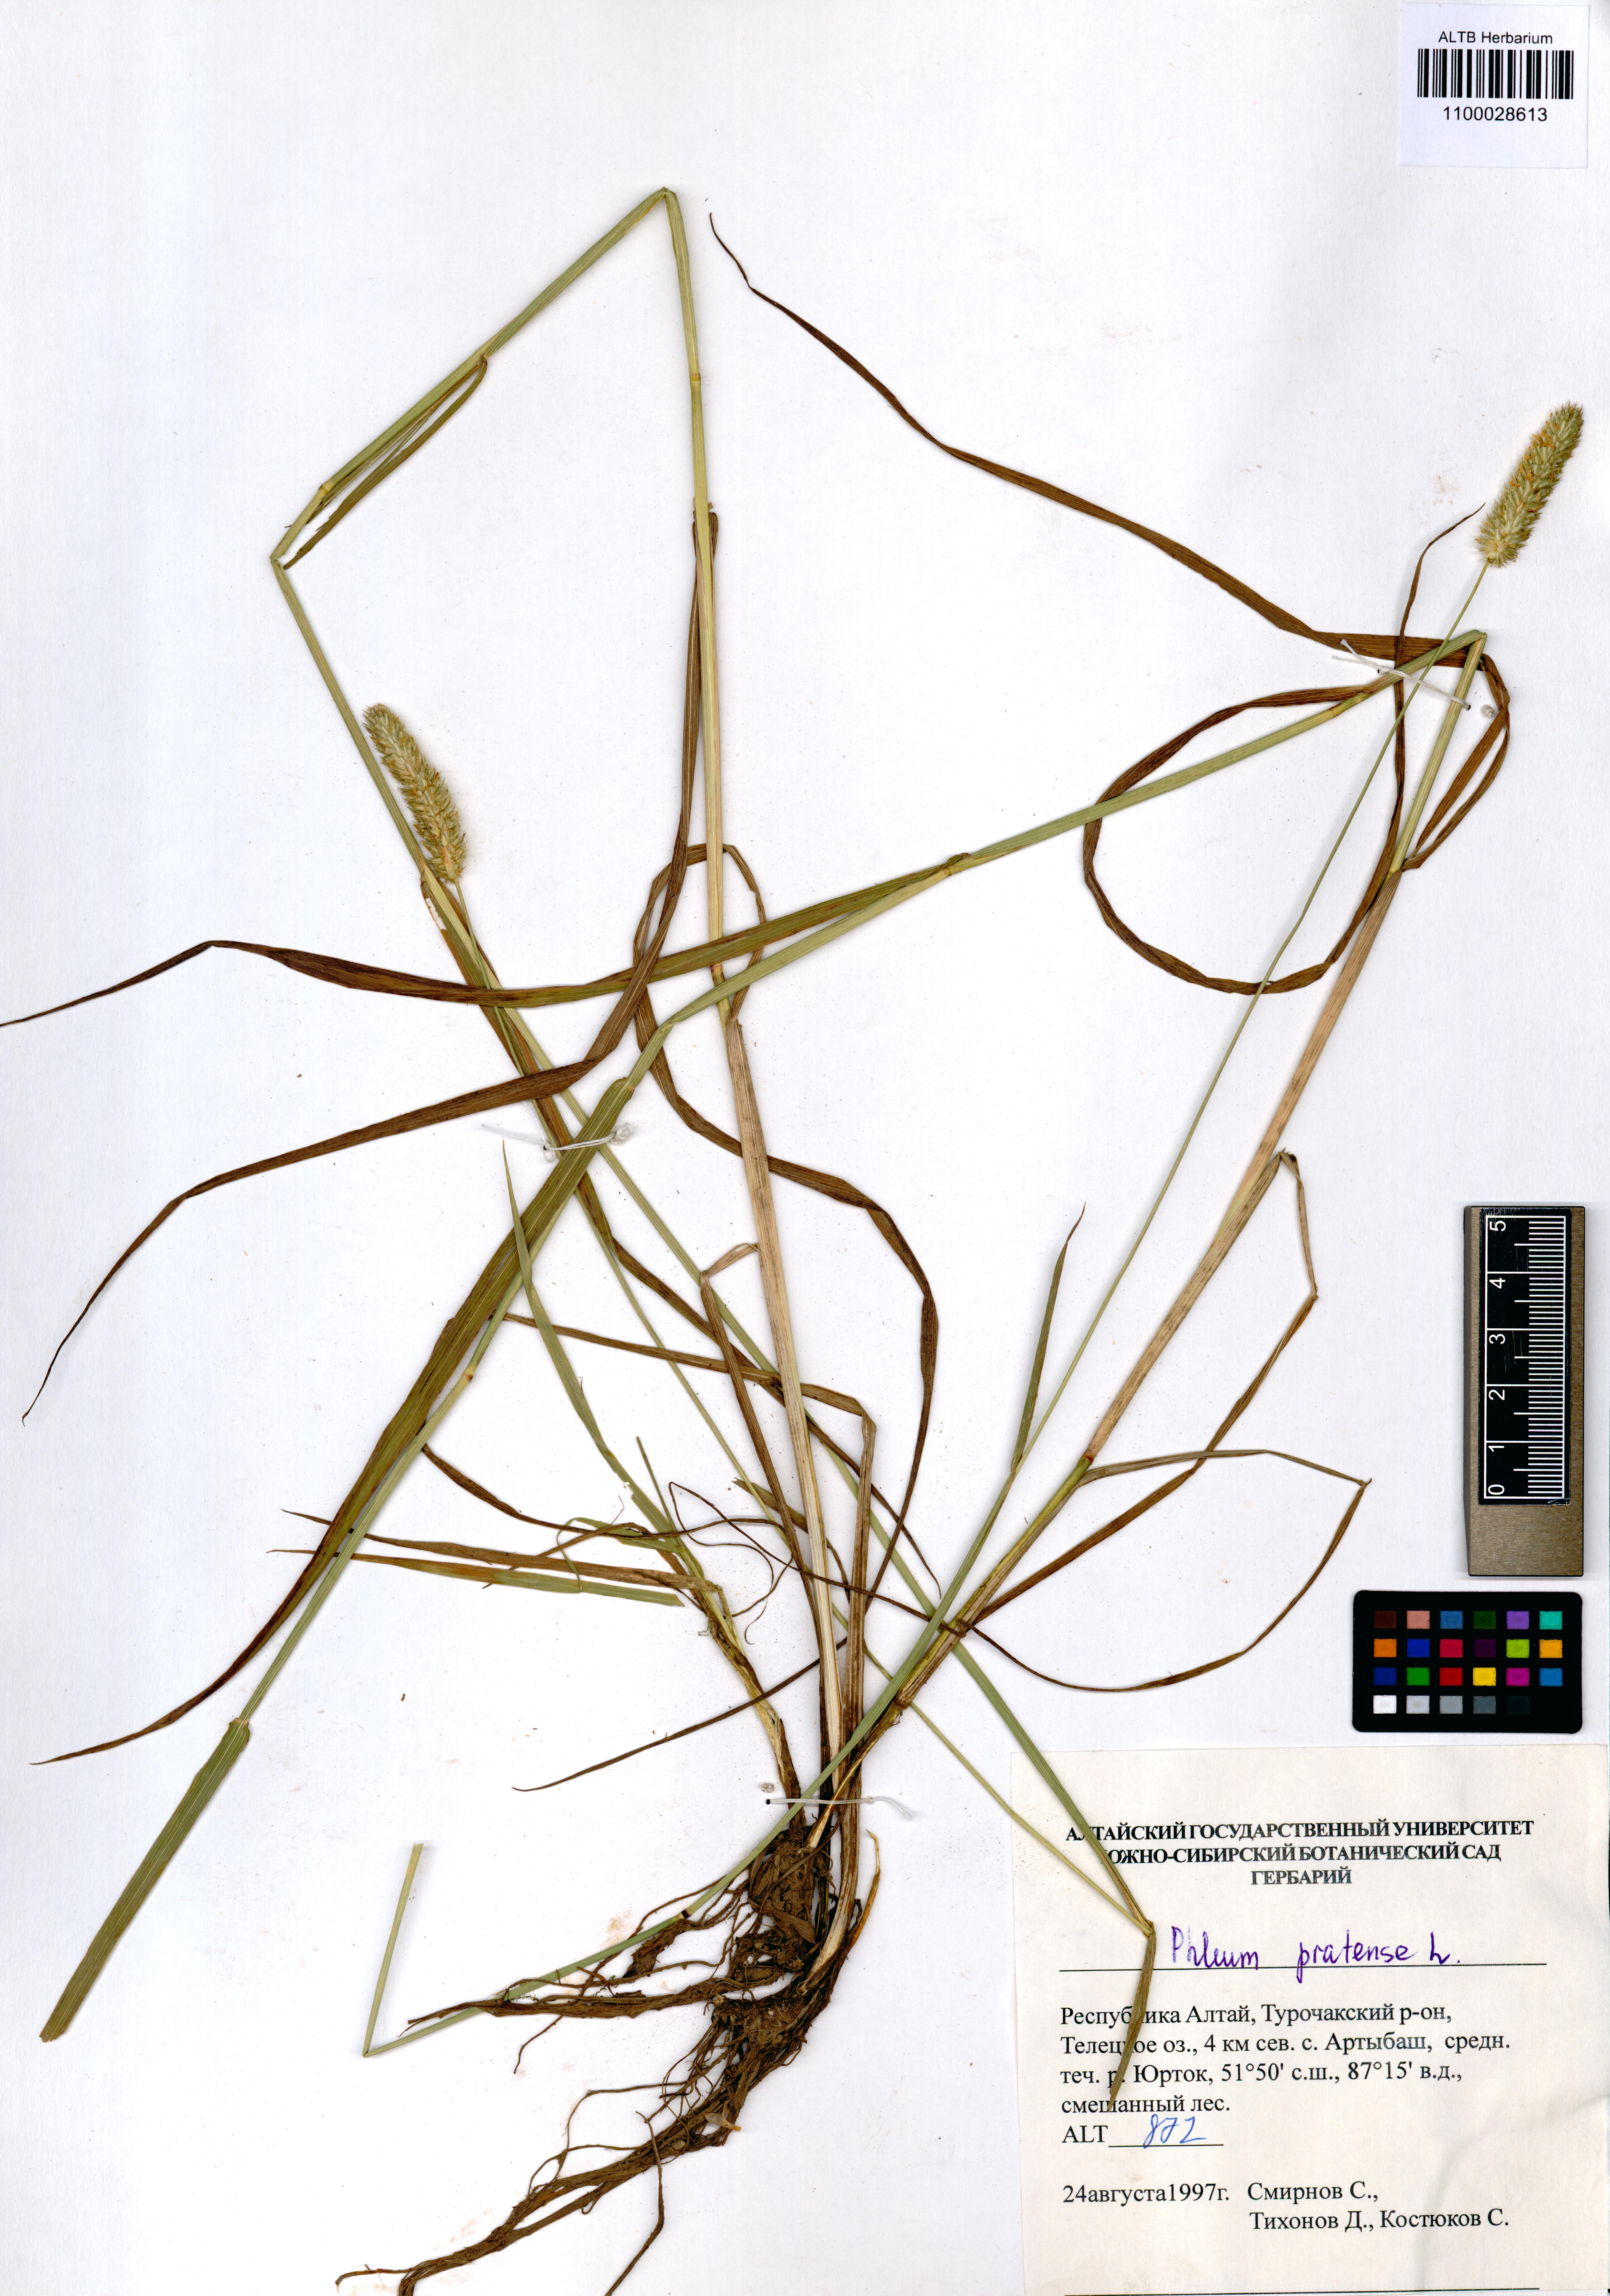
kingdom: Plantae
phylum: Tracheophyta
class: Liliopsida
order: Poales
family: Poaceae
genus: Phleum
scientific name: Phleum pratense
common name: Timothy grass
